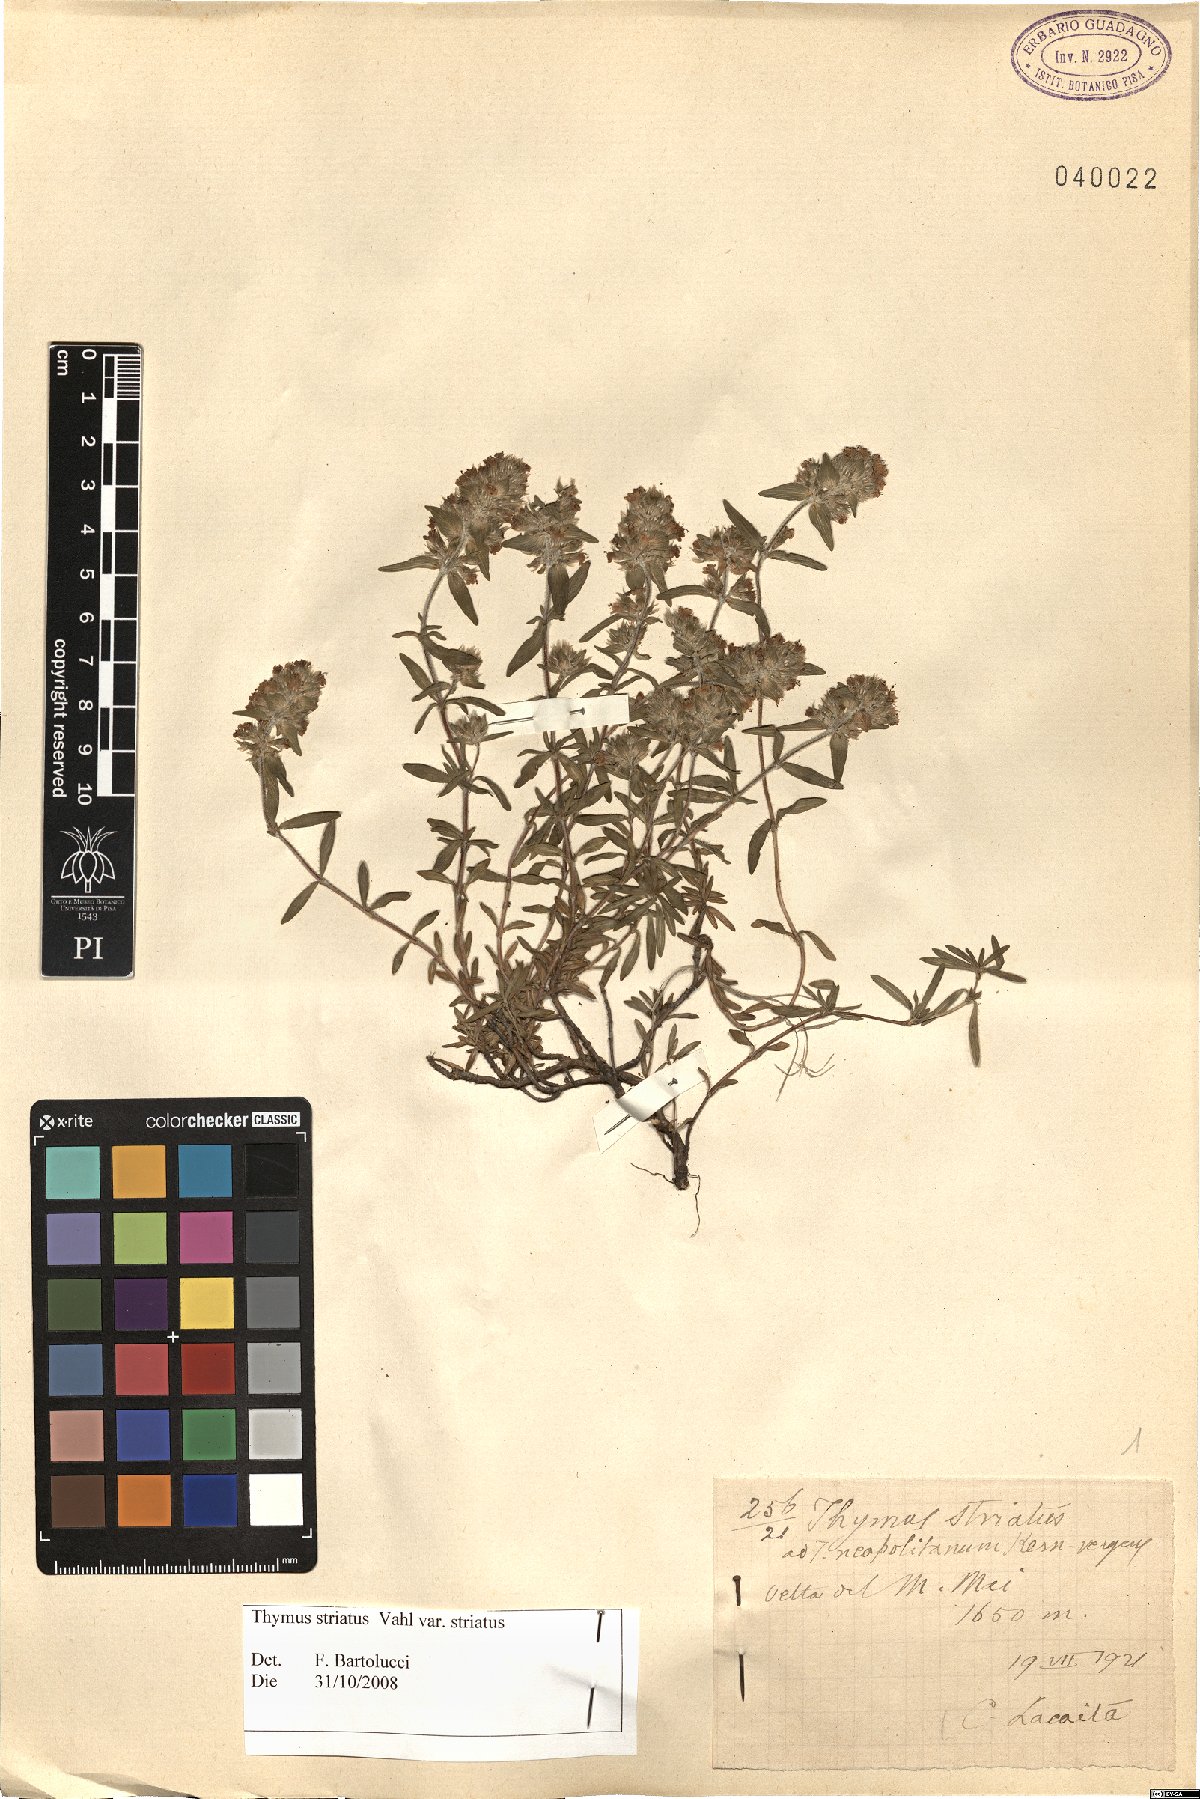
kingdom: Plantae
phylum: Tracheophyta
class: Magnoliopsida
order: Lamiales
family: Lamiaceae
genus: Thymus
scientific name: Thymus striatus
